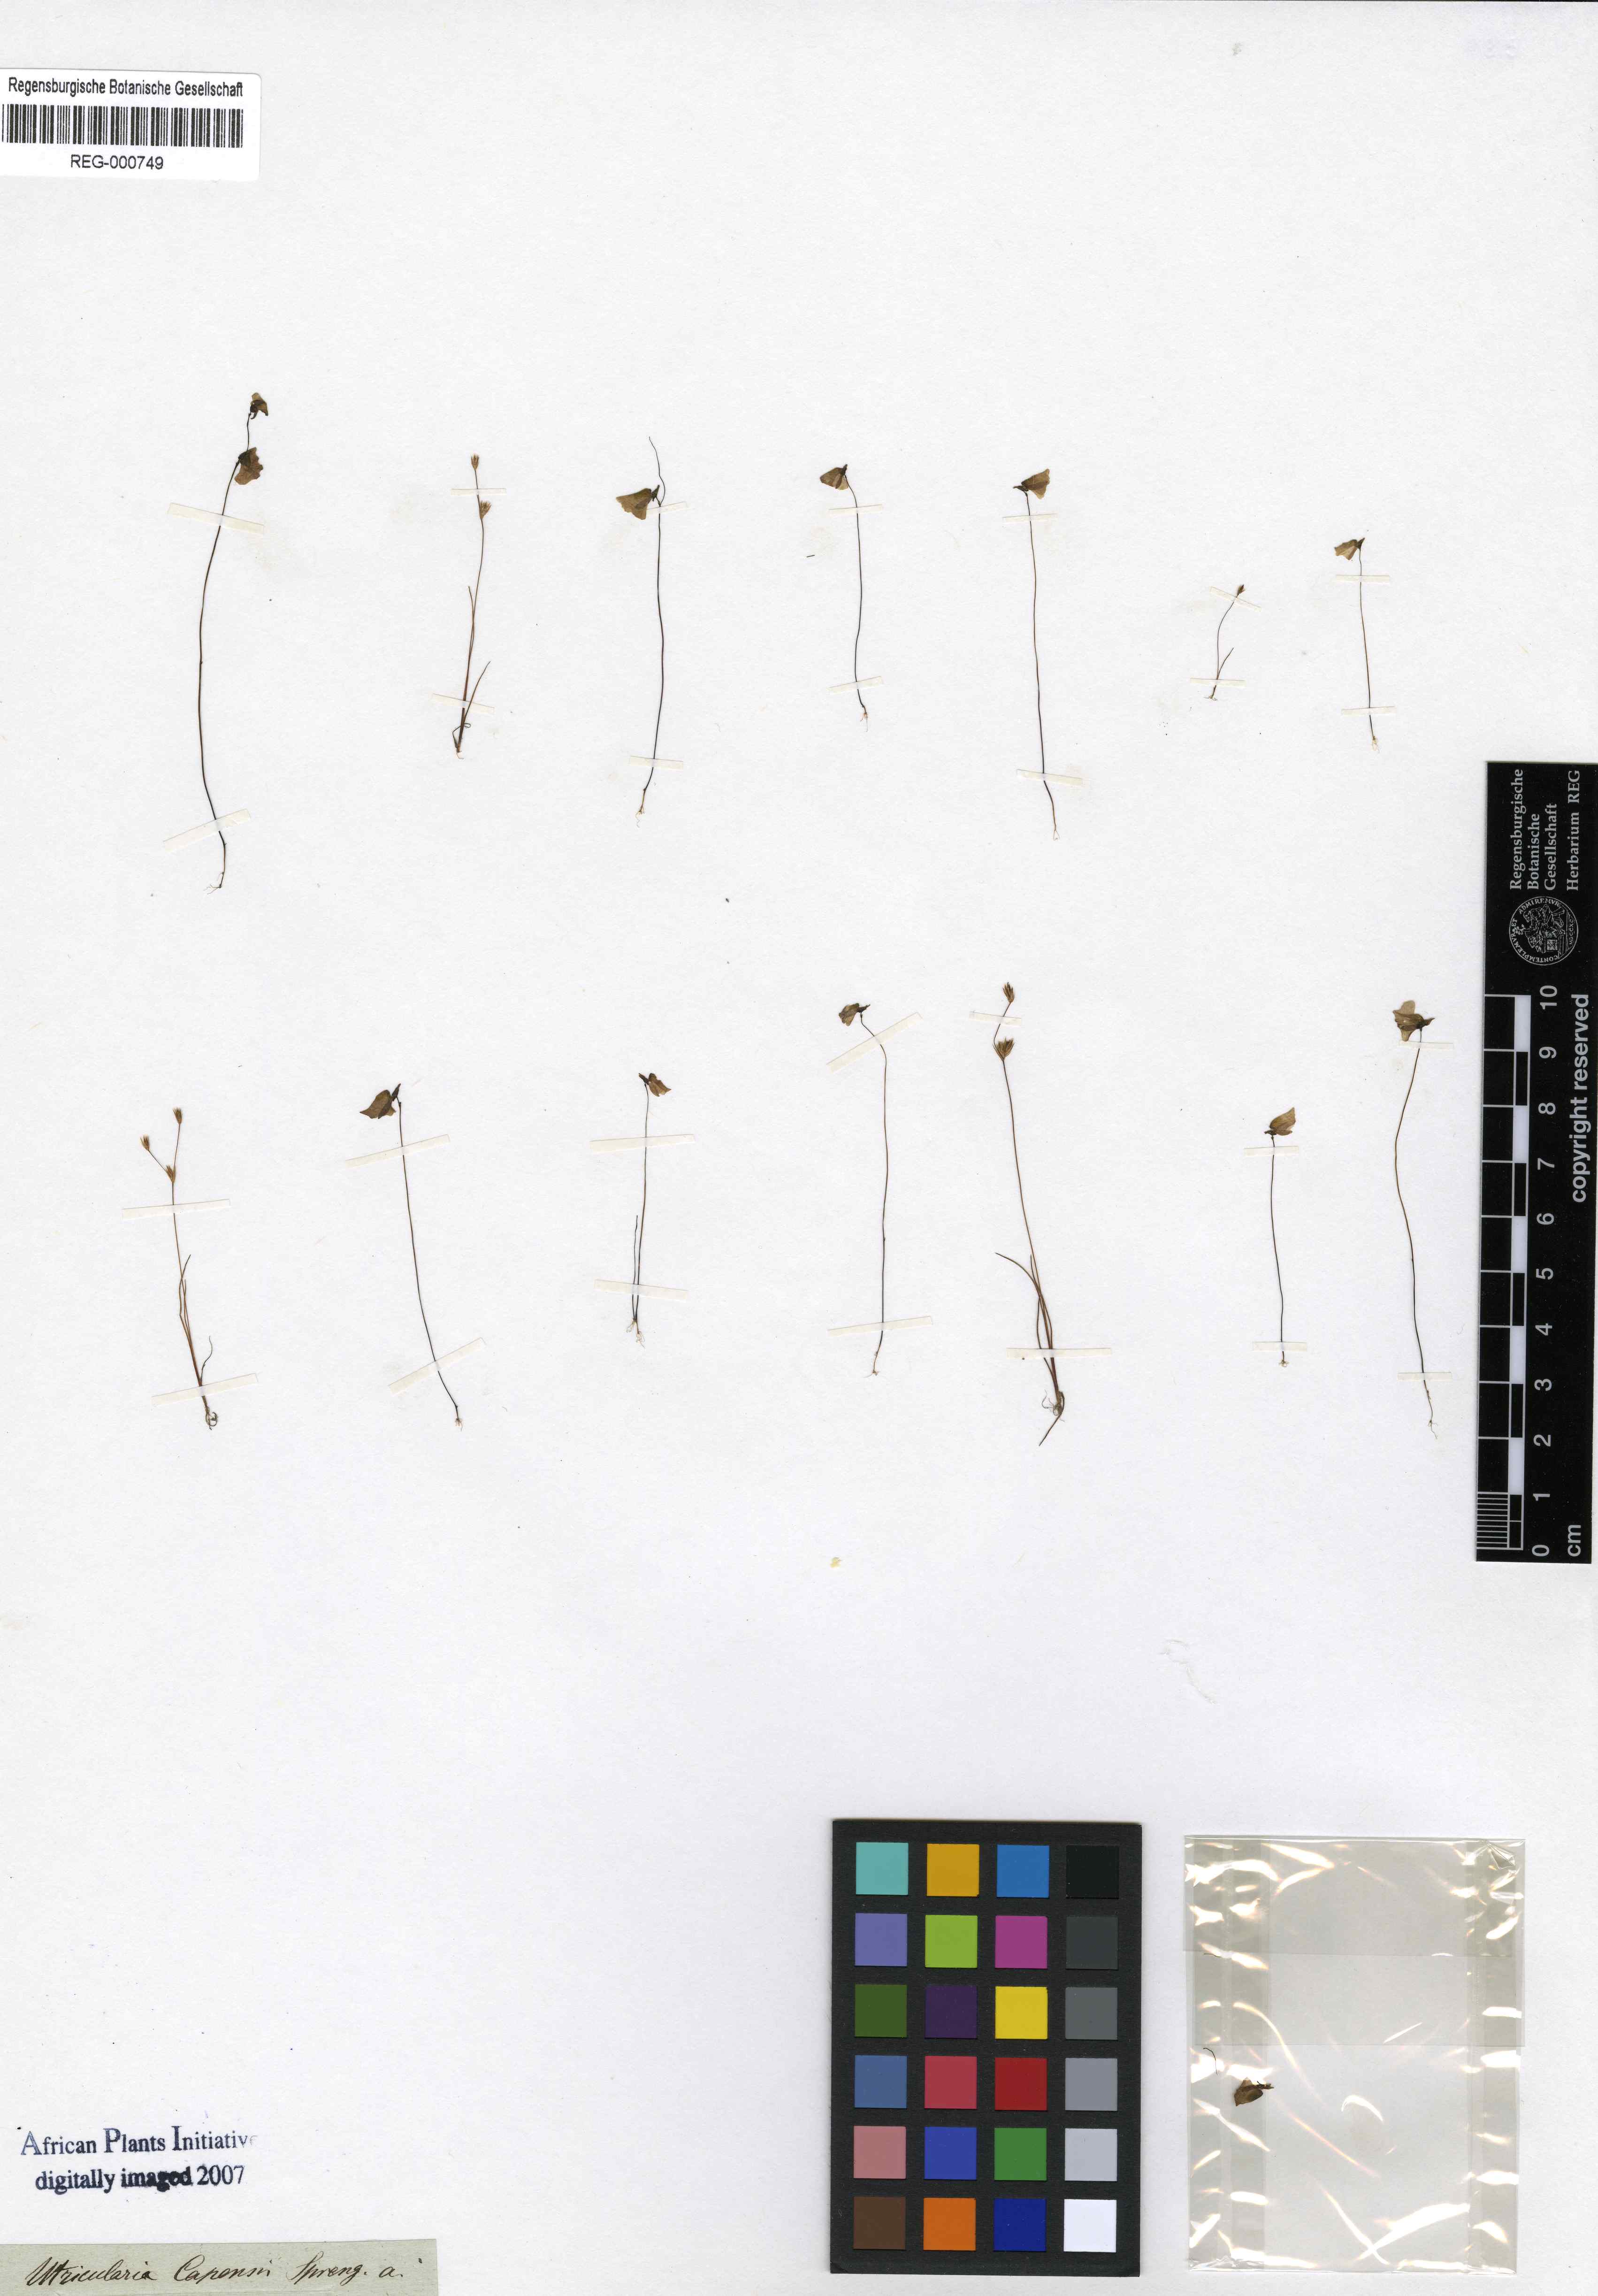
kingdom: Plantae
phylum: Tracheophyta
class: Magnoliopsida
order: Lamiales
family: Lentibulariaceae
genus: Utricularia
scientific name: Utricularia bisquamata
